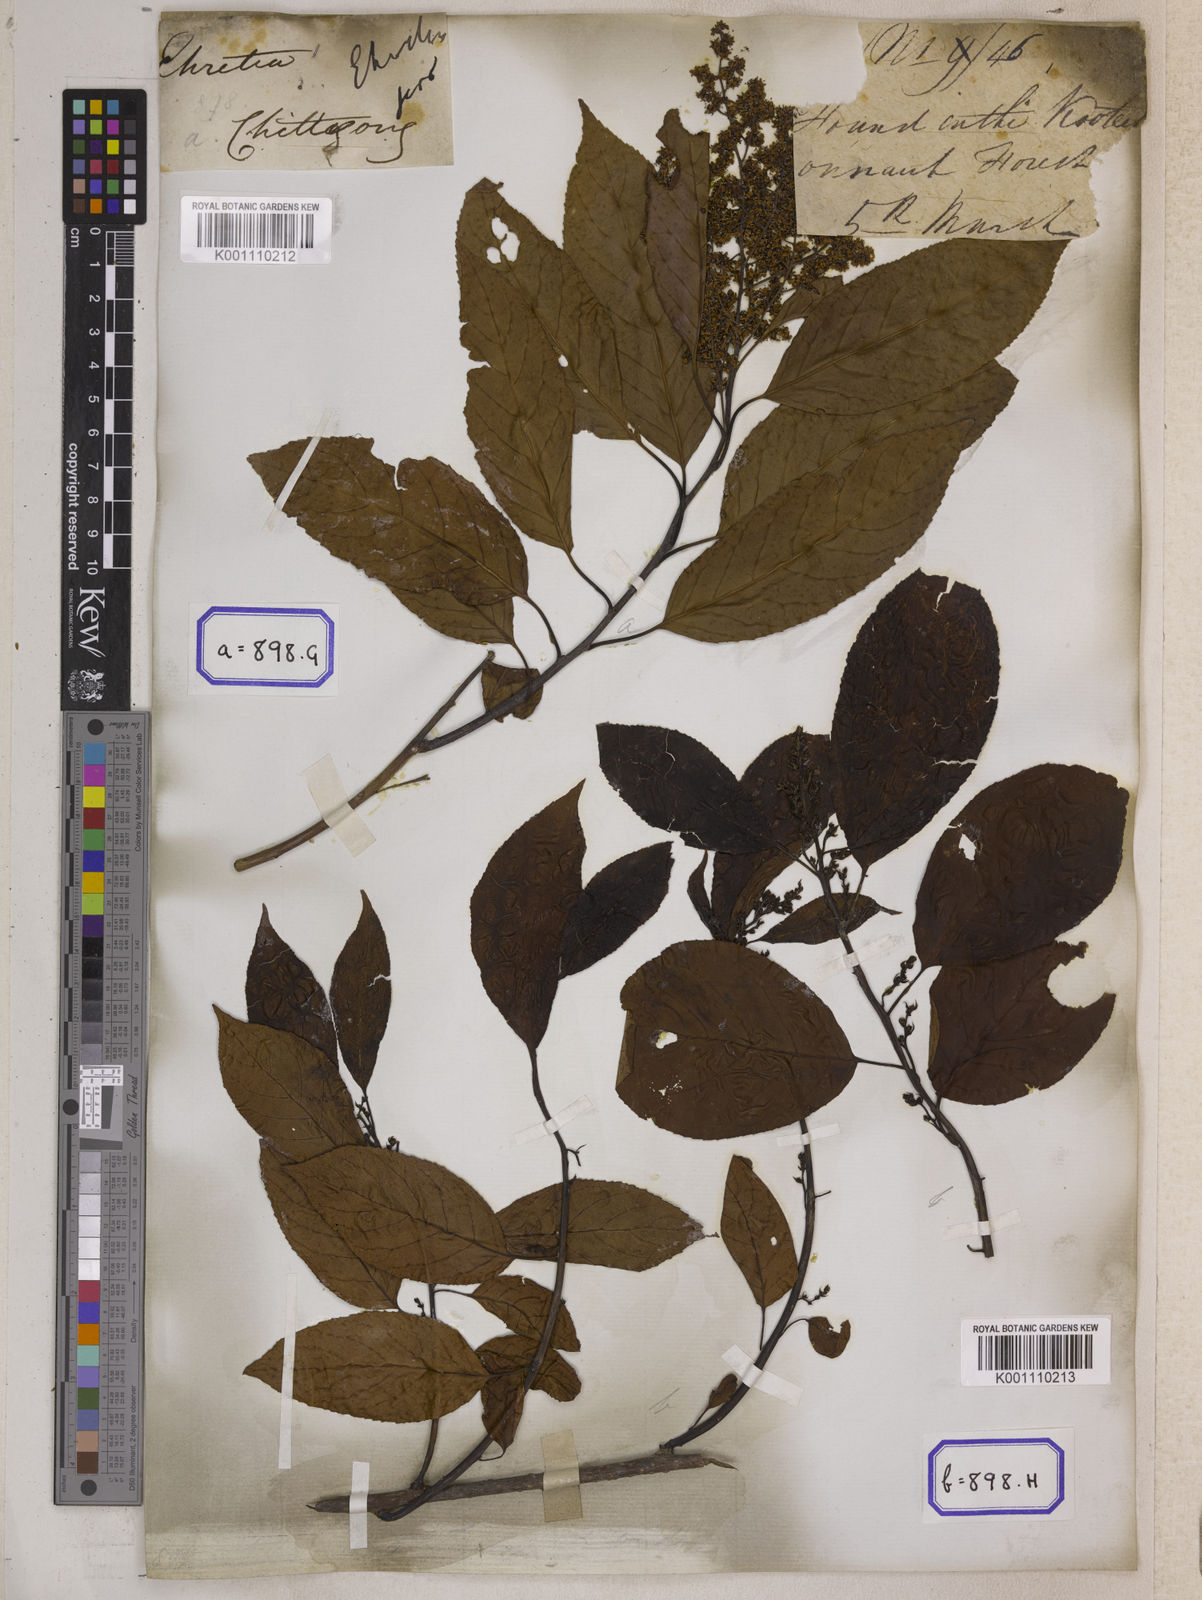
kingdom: Plantae
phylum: Tracheophyta
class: Magnoliopsida
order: Boraginales
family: Ehretiaceae
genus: Ehretia
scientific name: Ehretia acuminata
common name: Kodo wood
